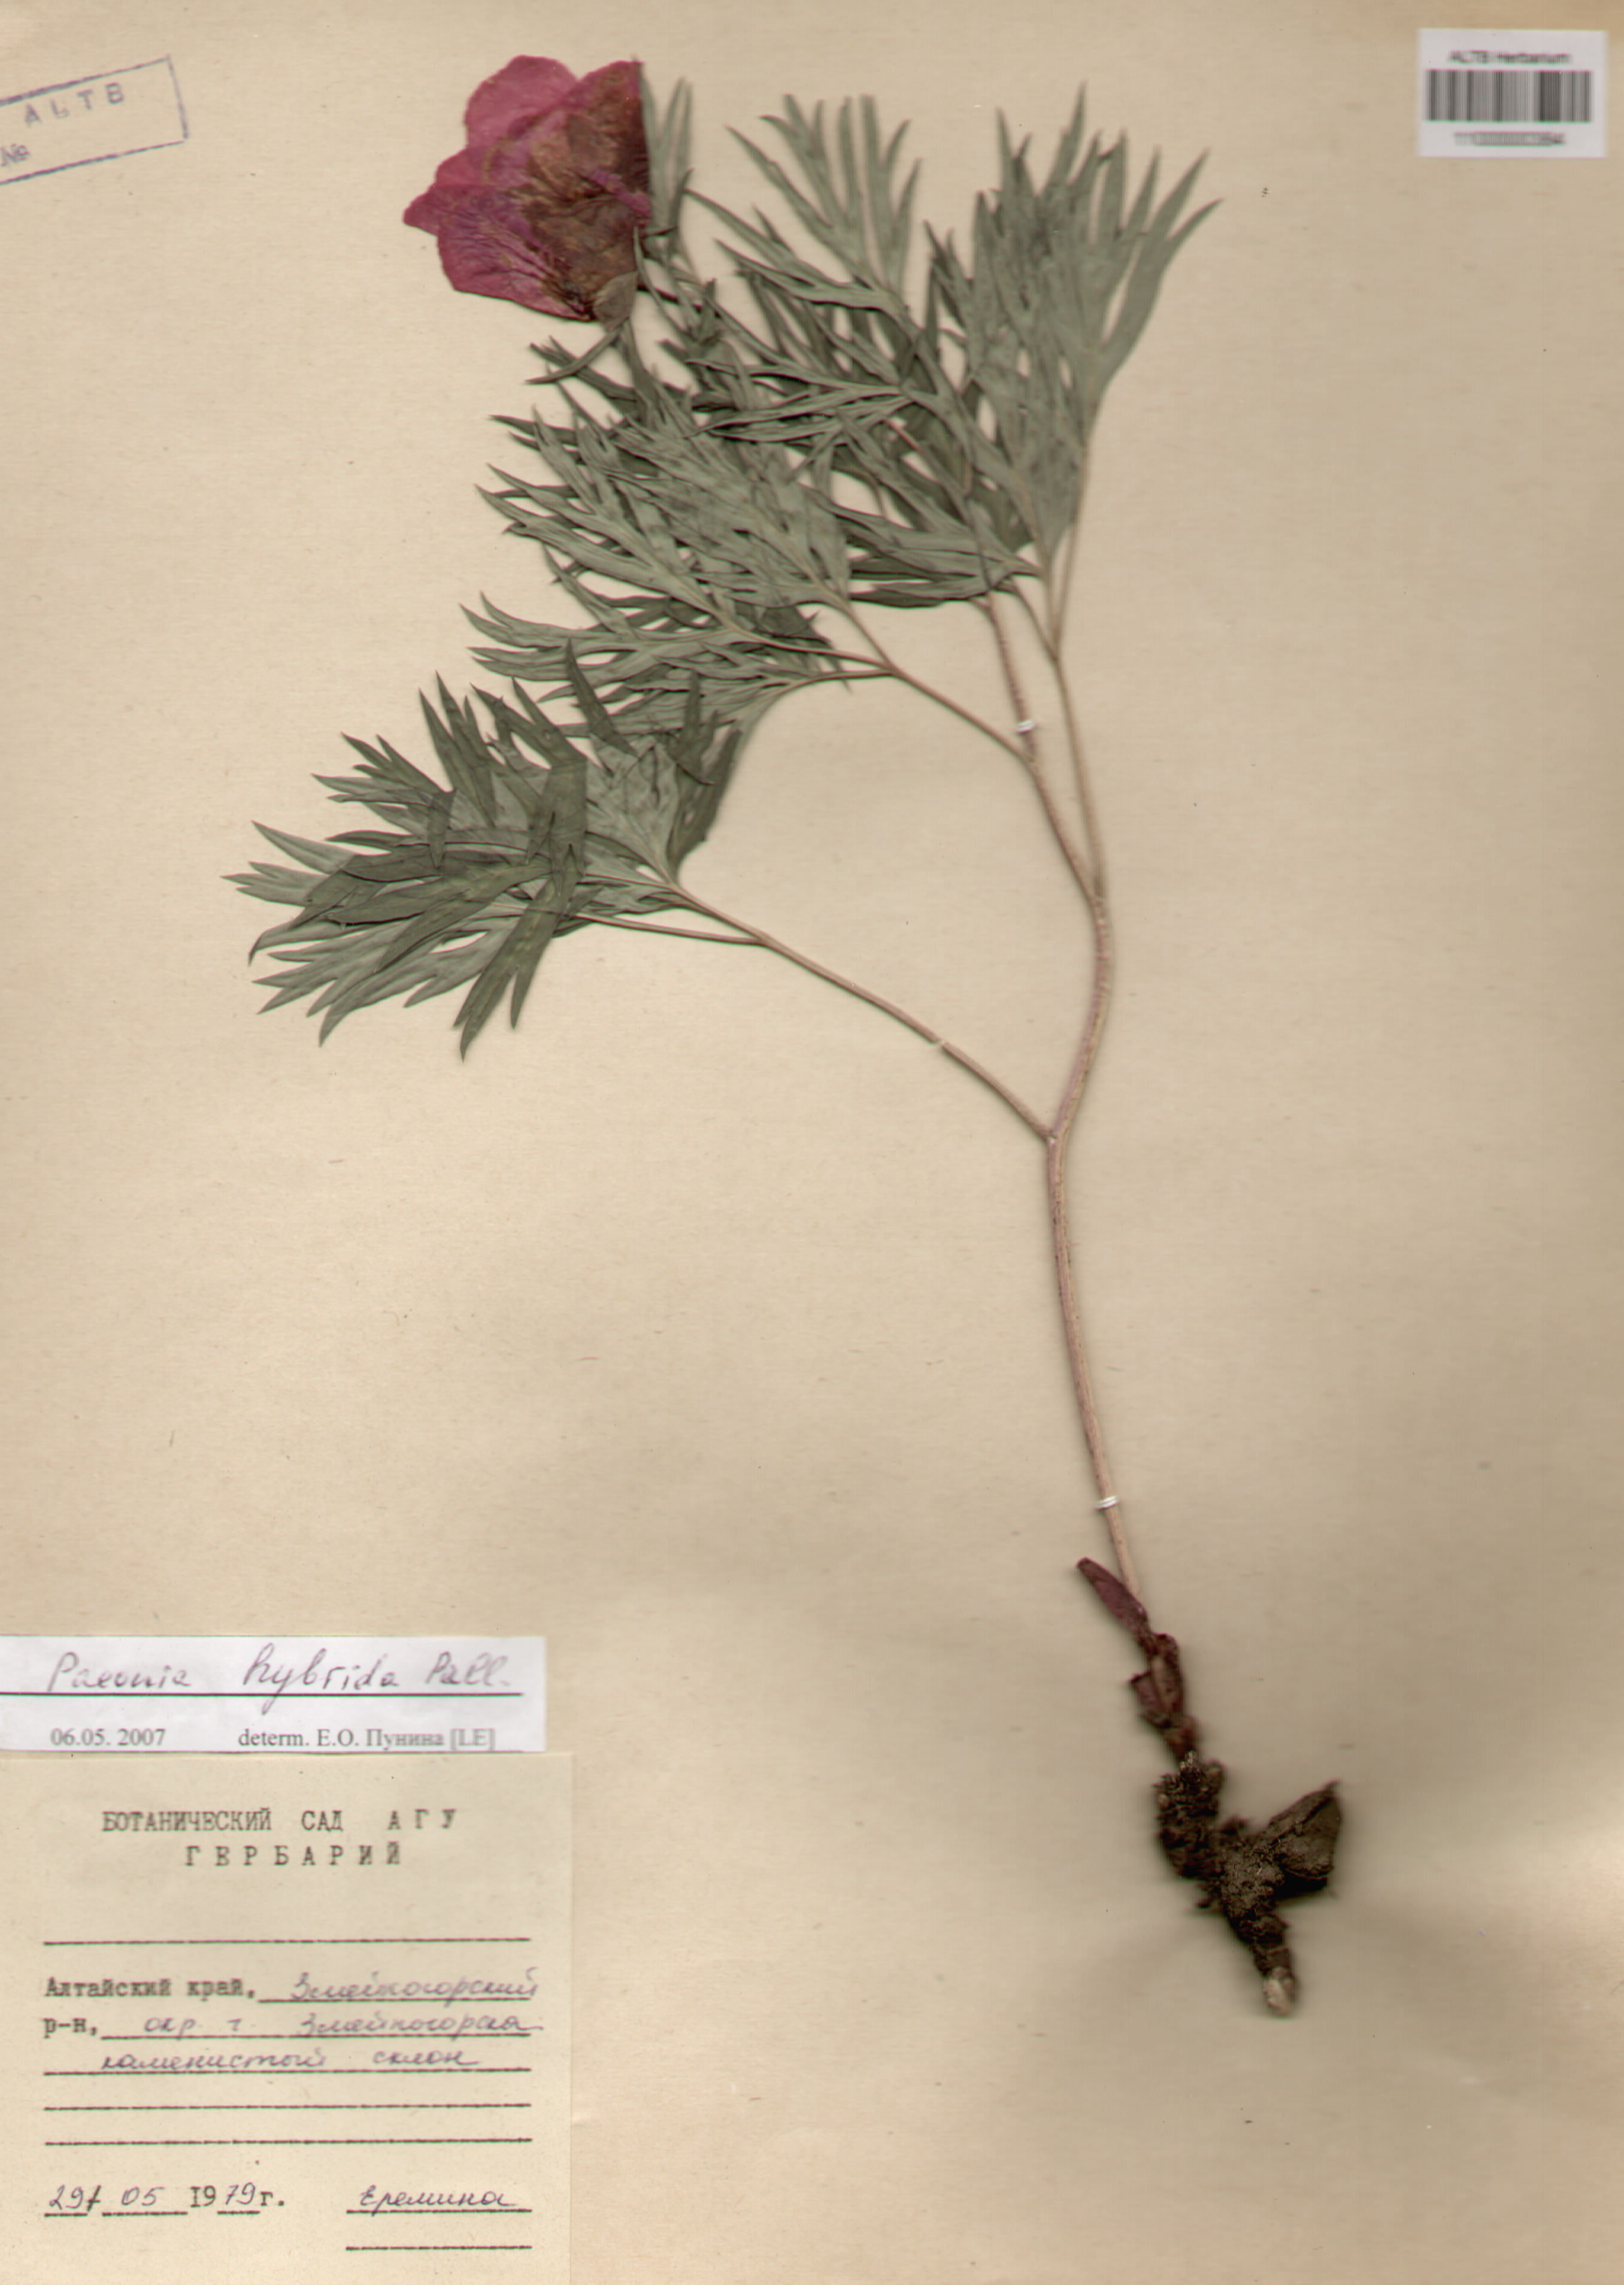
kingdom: Plantae
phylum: Tracheophyta
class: Magnoliopsida
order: Saxifragales
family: Paeoniaceae
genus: Paeonia
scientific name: Paeonia
